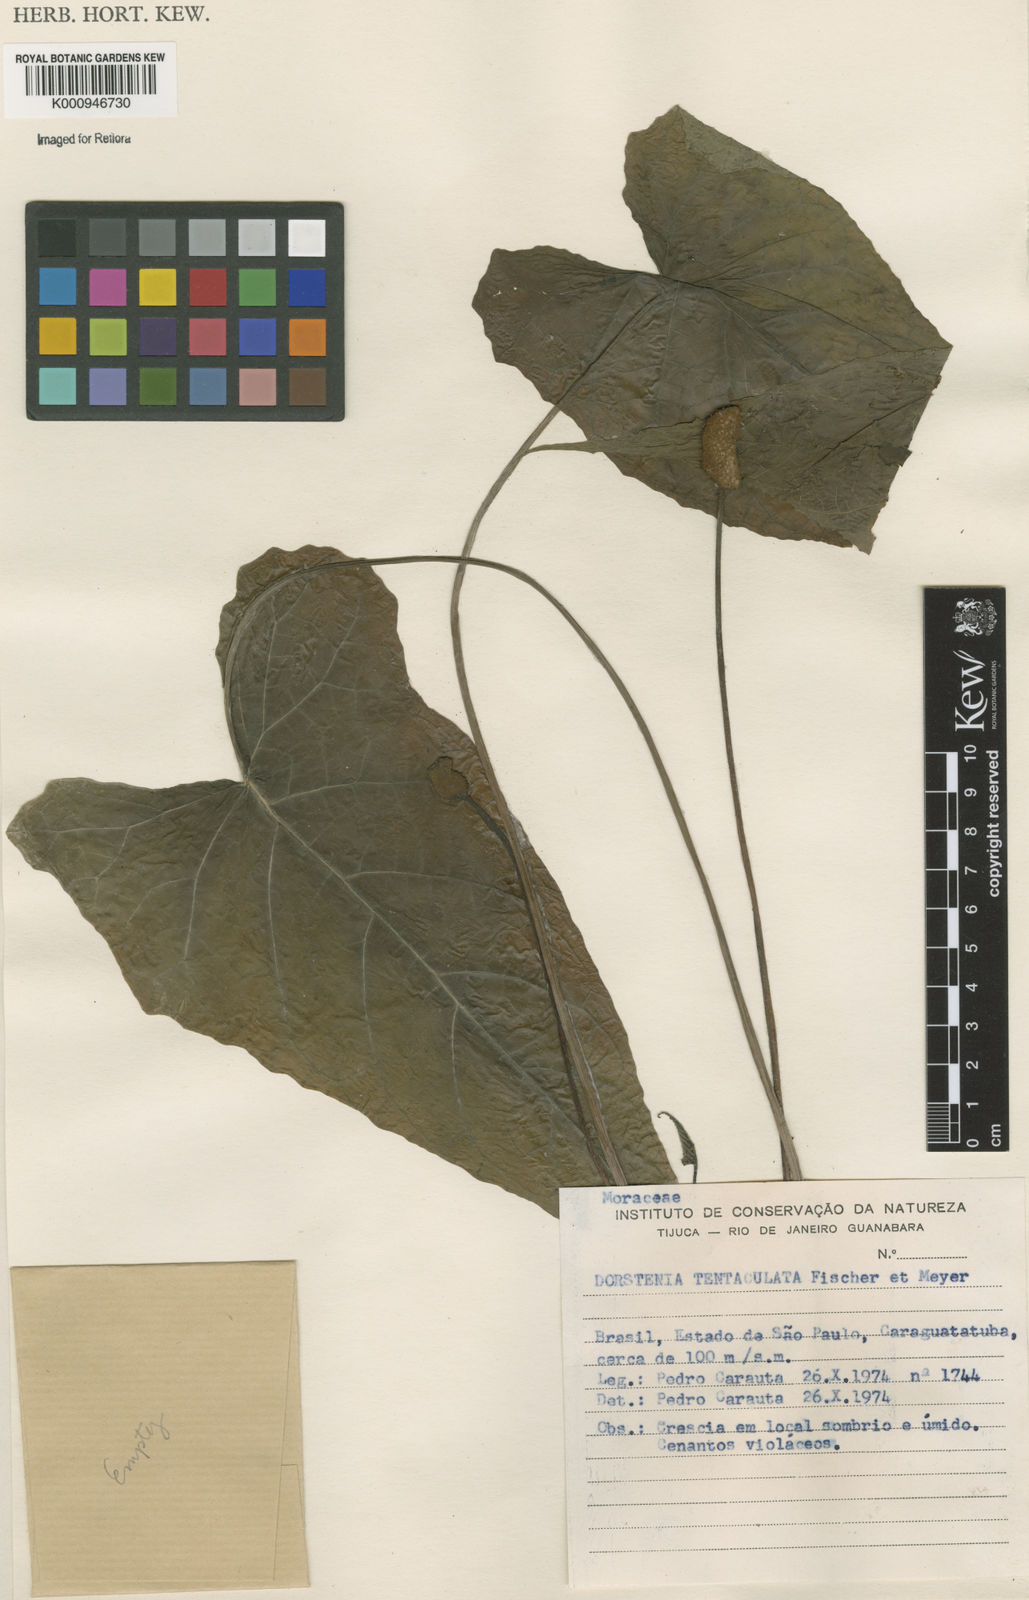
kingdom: Plantae
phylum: Tracheophyta
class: Magnoliopsida
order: Rosales
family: Moraceae
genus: Dorstenia
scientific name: Dorstenia tentaculata
